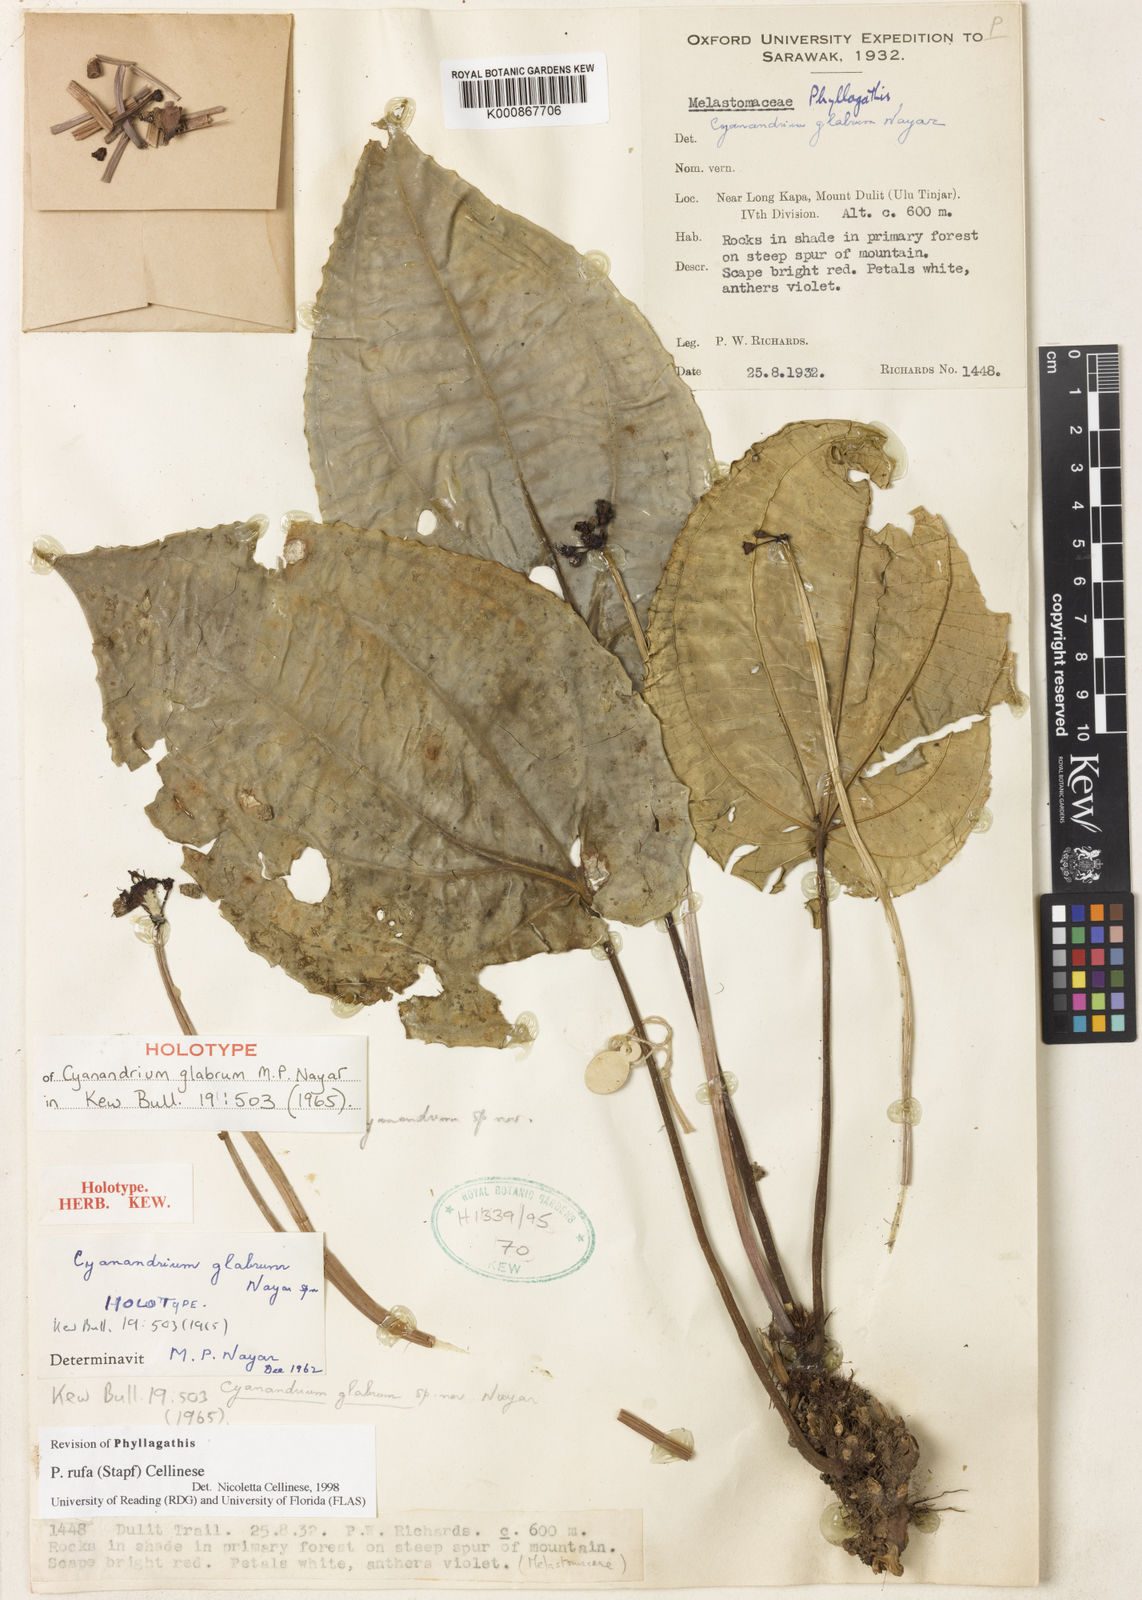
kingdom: Plantae
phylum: Tracheophyta
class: Magnoliopsida
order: Myrtales
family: Melastomataceae
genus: Cyanandrium
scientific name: Cyanandrium rufum
